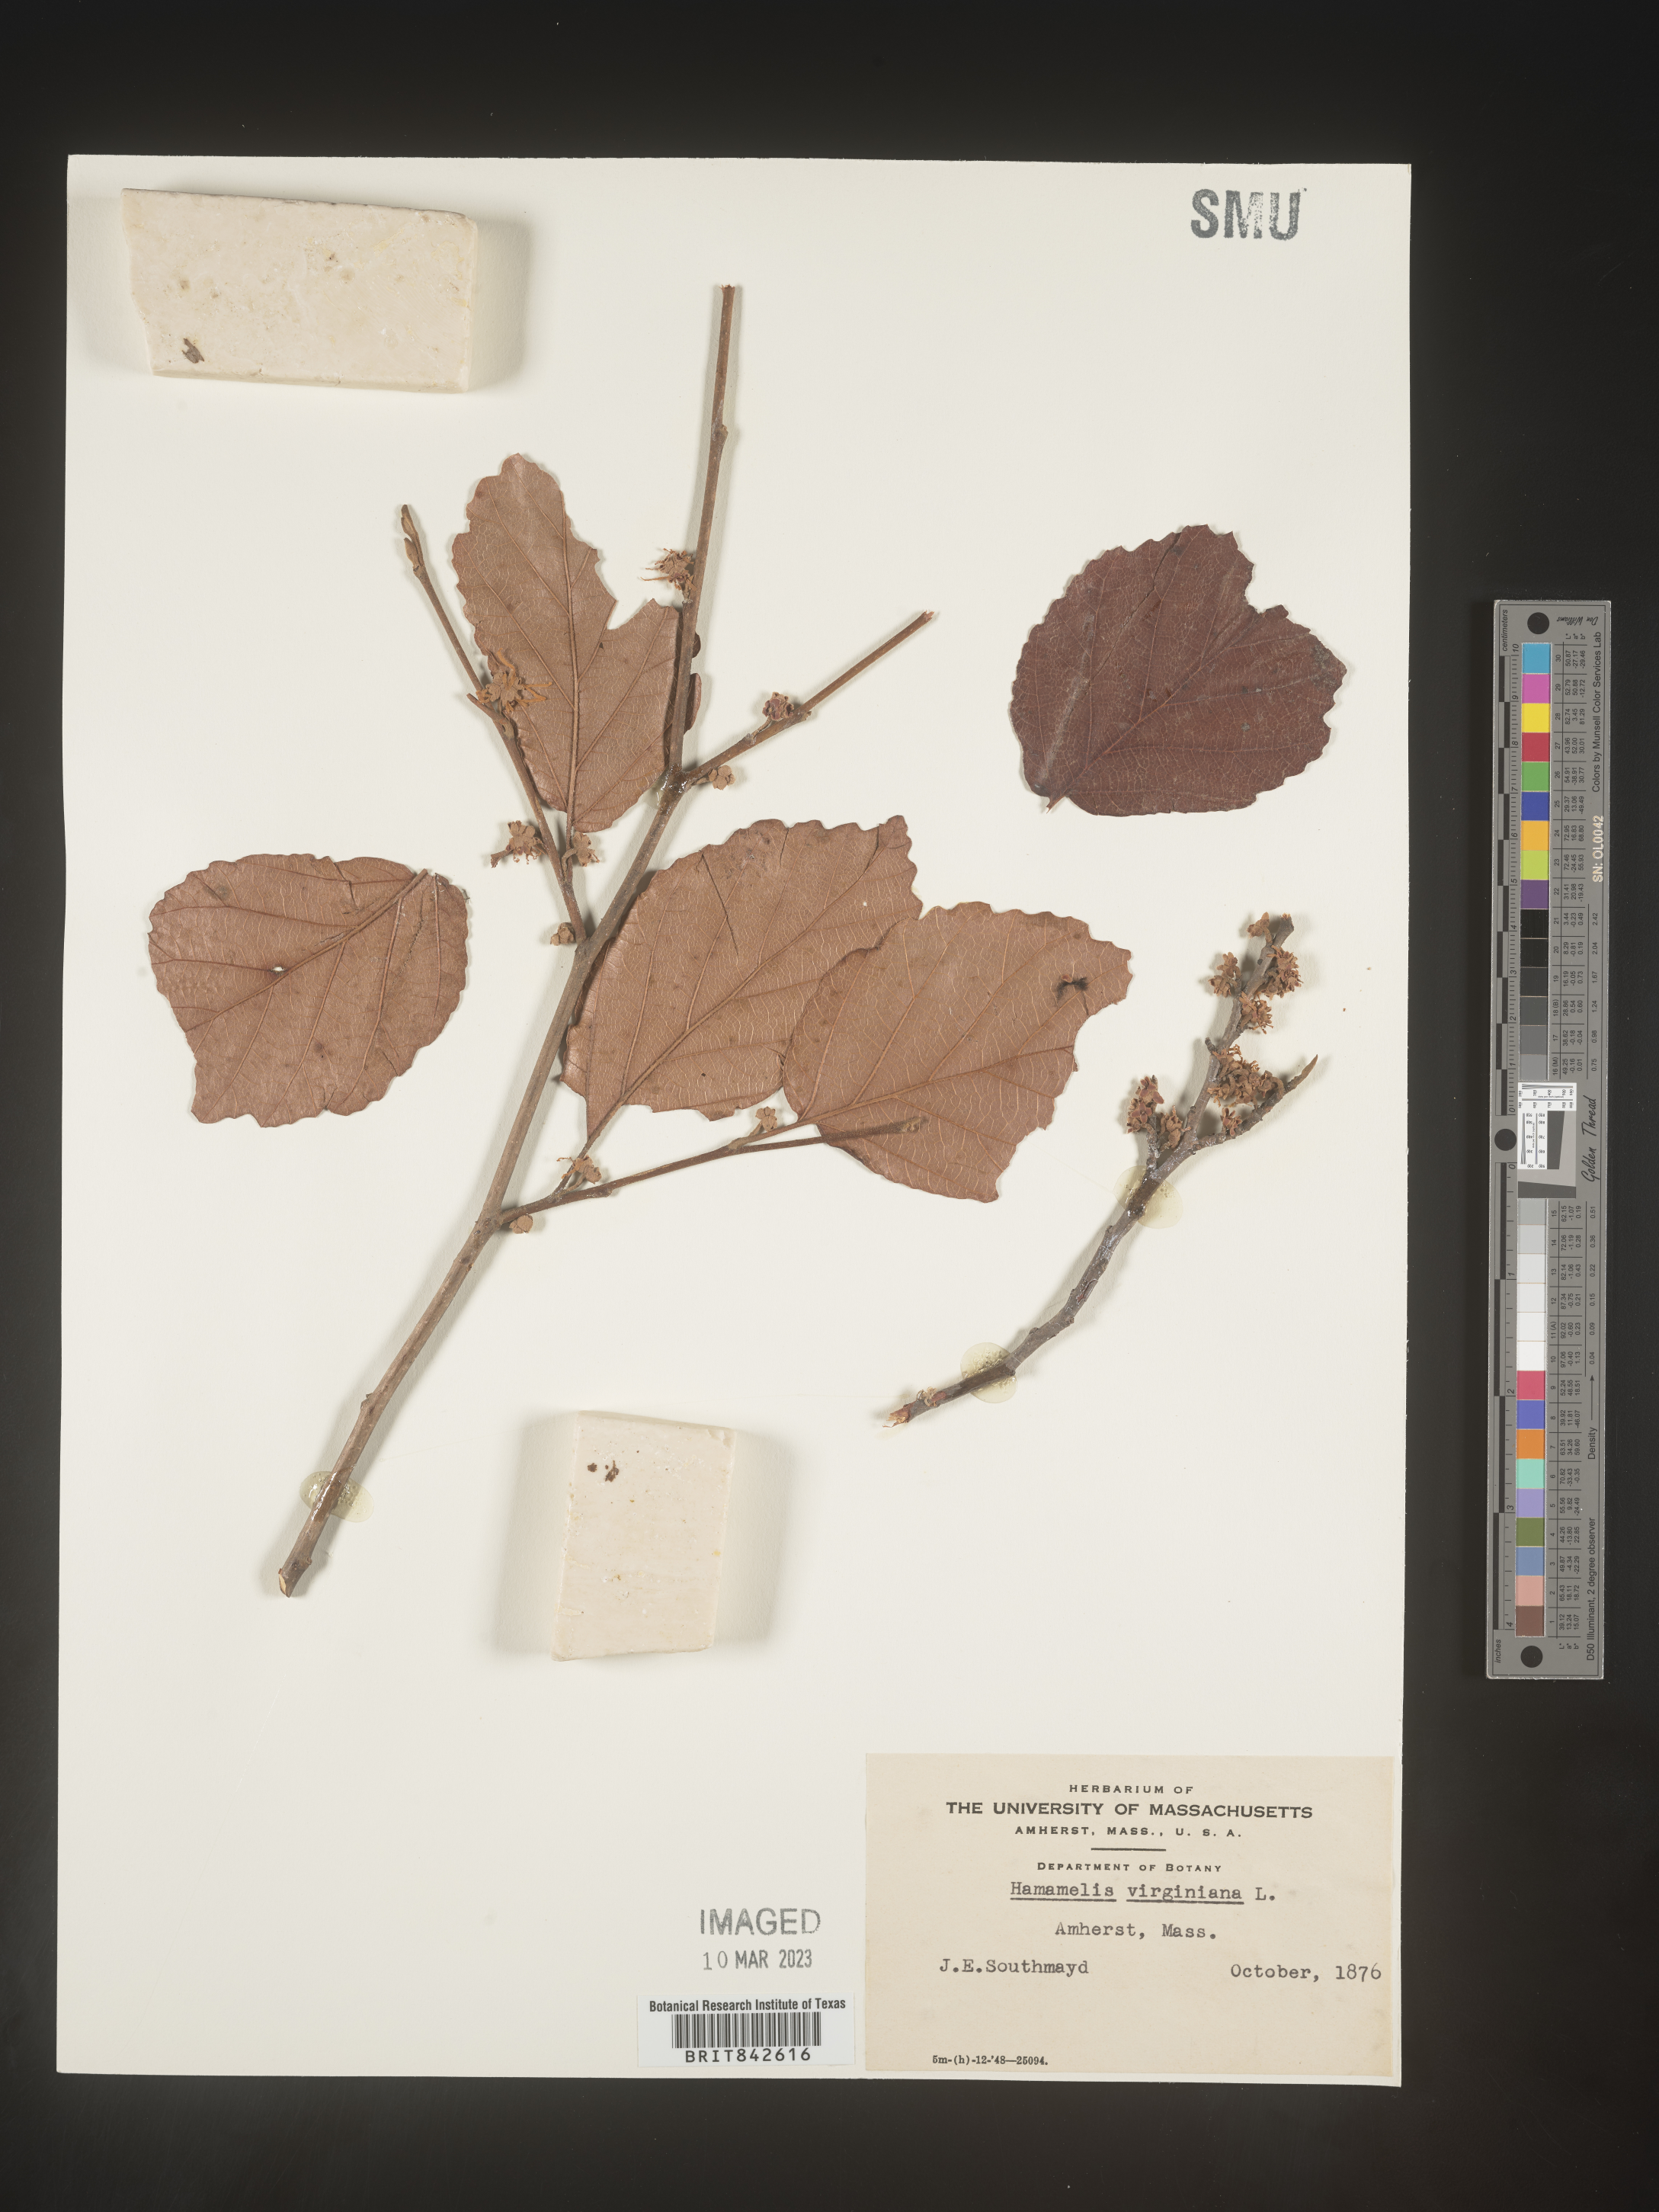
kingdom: Plantae
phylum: Tracheophyta
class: Magnoliopsida
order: Saxifragales
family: Hamamelidaceae
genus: Hamamelis
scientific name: Hamamelis
